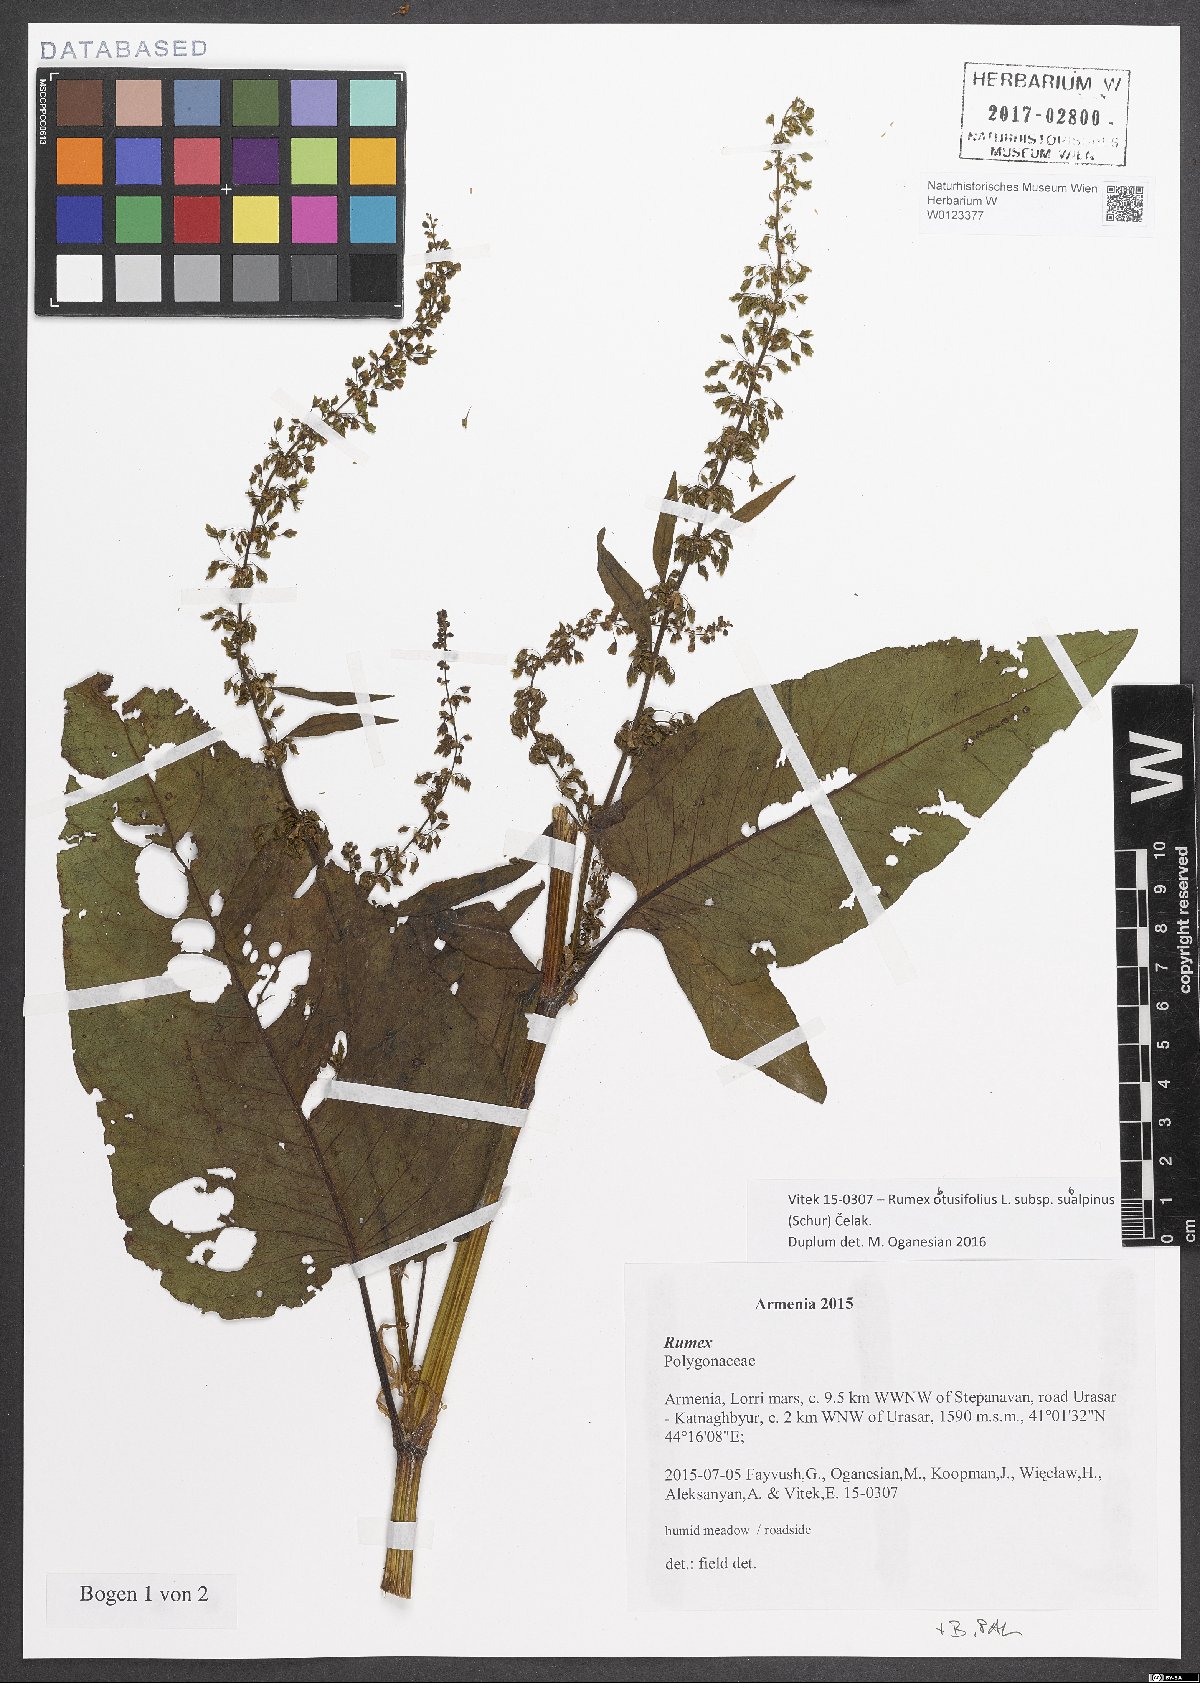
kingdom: Plantae
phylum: Tracheophyta
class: Magnoliopsida
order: Caryophyllales
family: Polygonaceae
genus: Rumex
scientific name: Rumex obtusifolius
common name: Bitter dock
